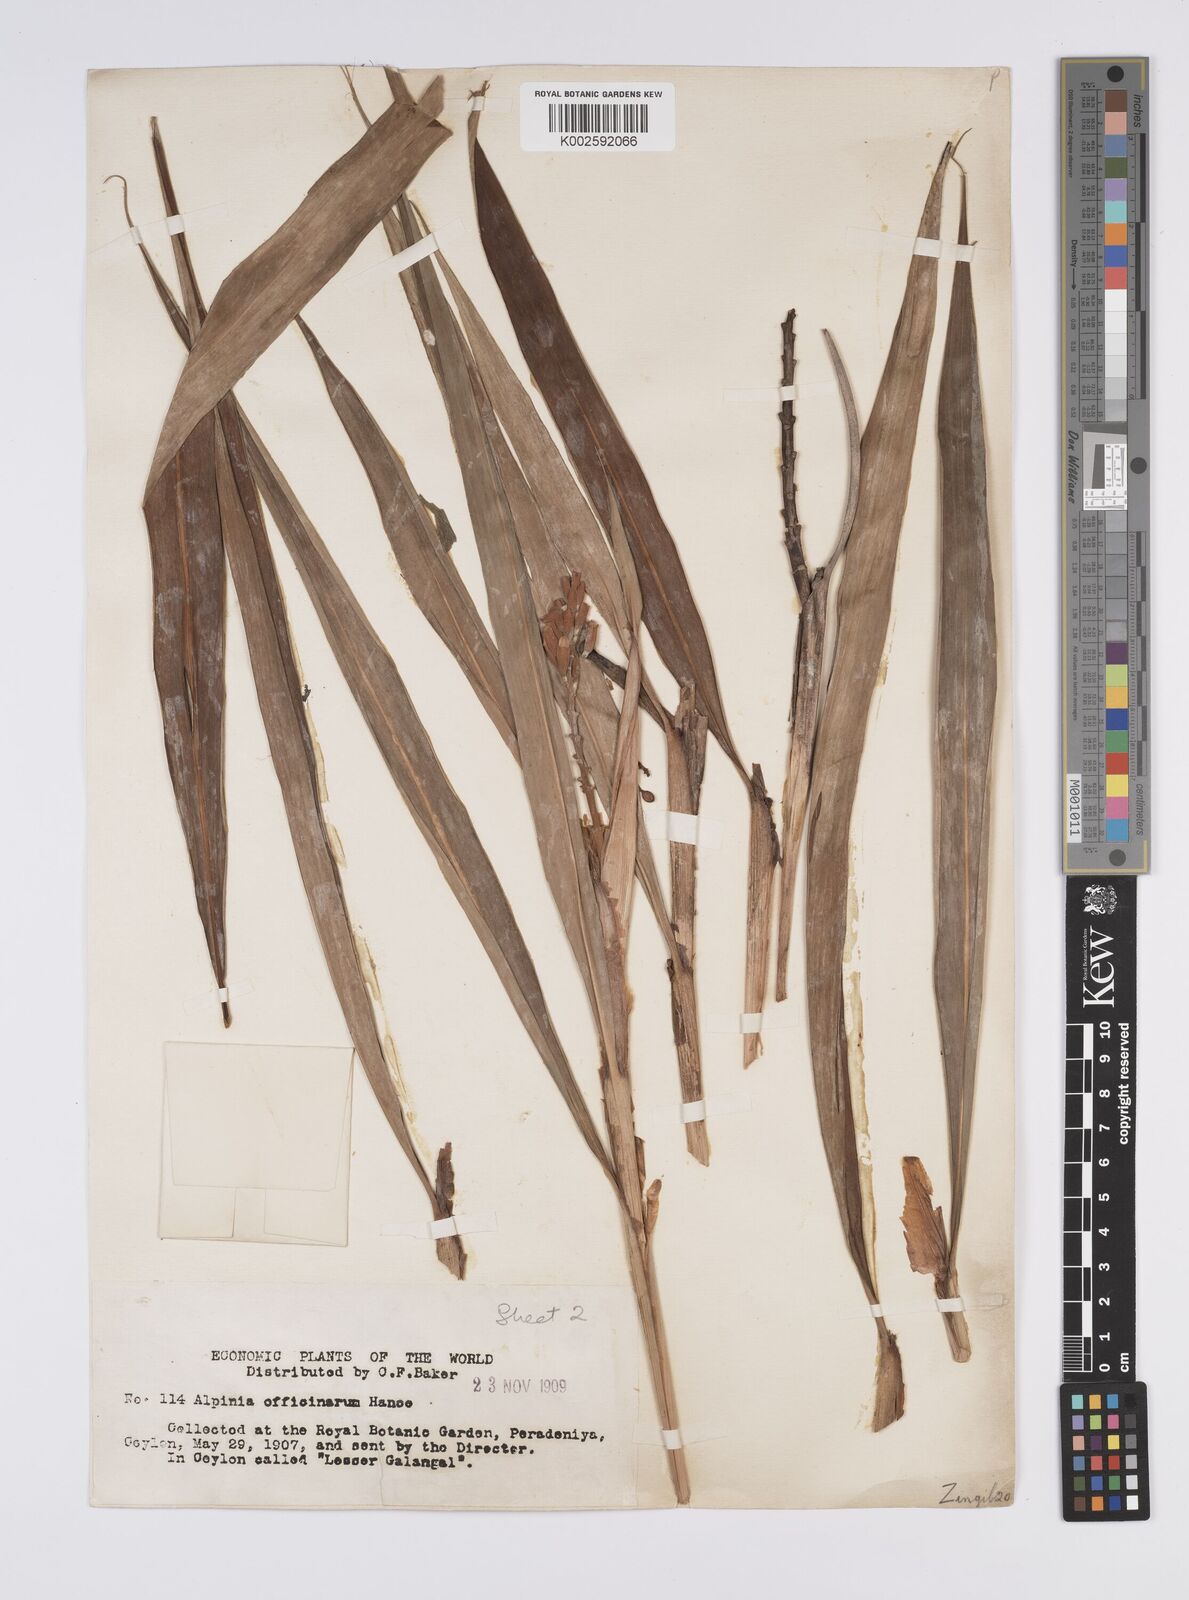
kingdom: Plantae
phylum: Tracheophyta
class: Liliopsida
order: Zingiberales
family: Zingiberaceae
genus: Alpinia
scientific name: Alpinia officinarum
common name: Chinese-ginger
